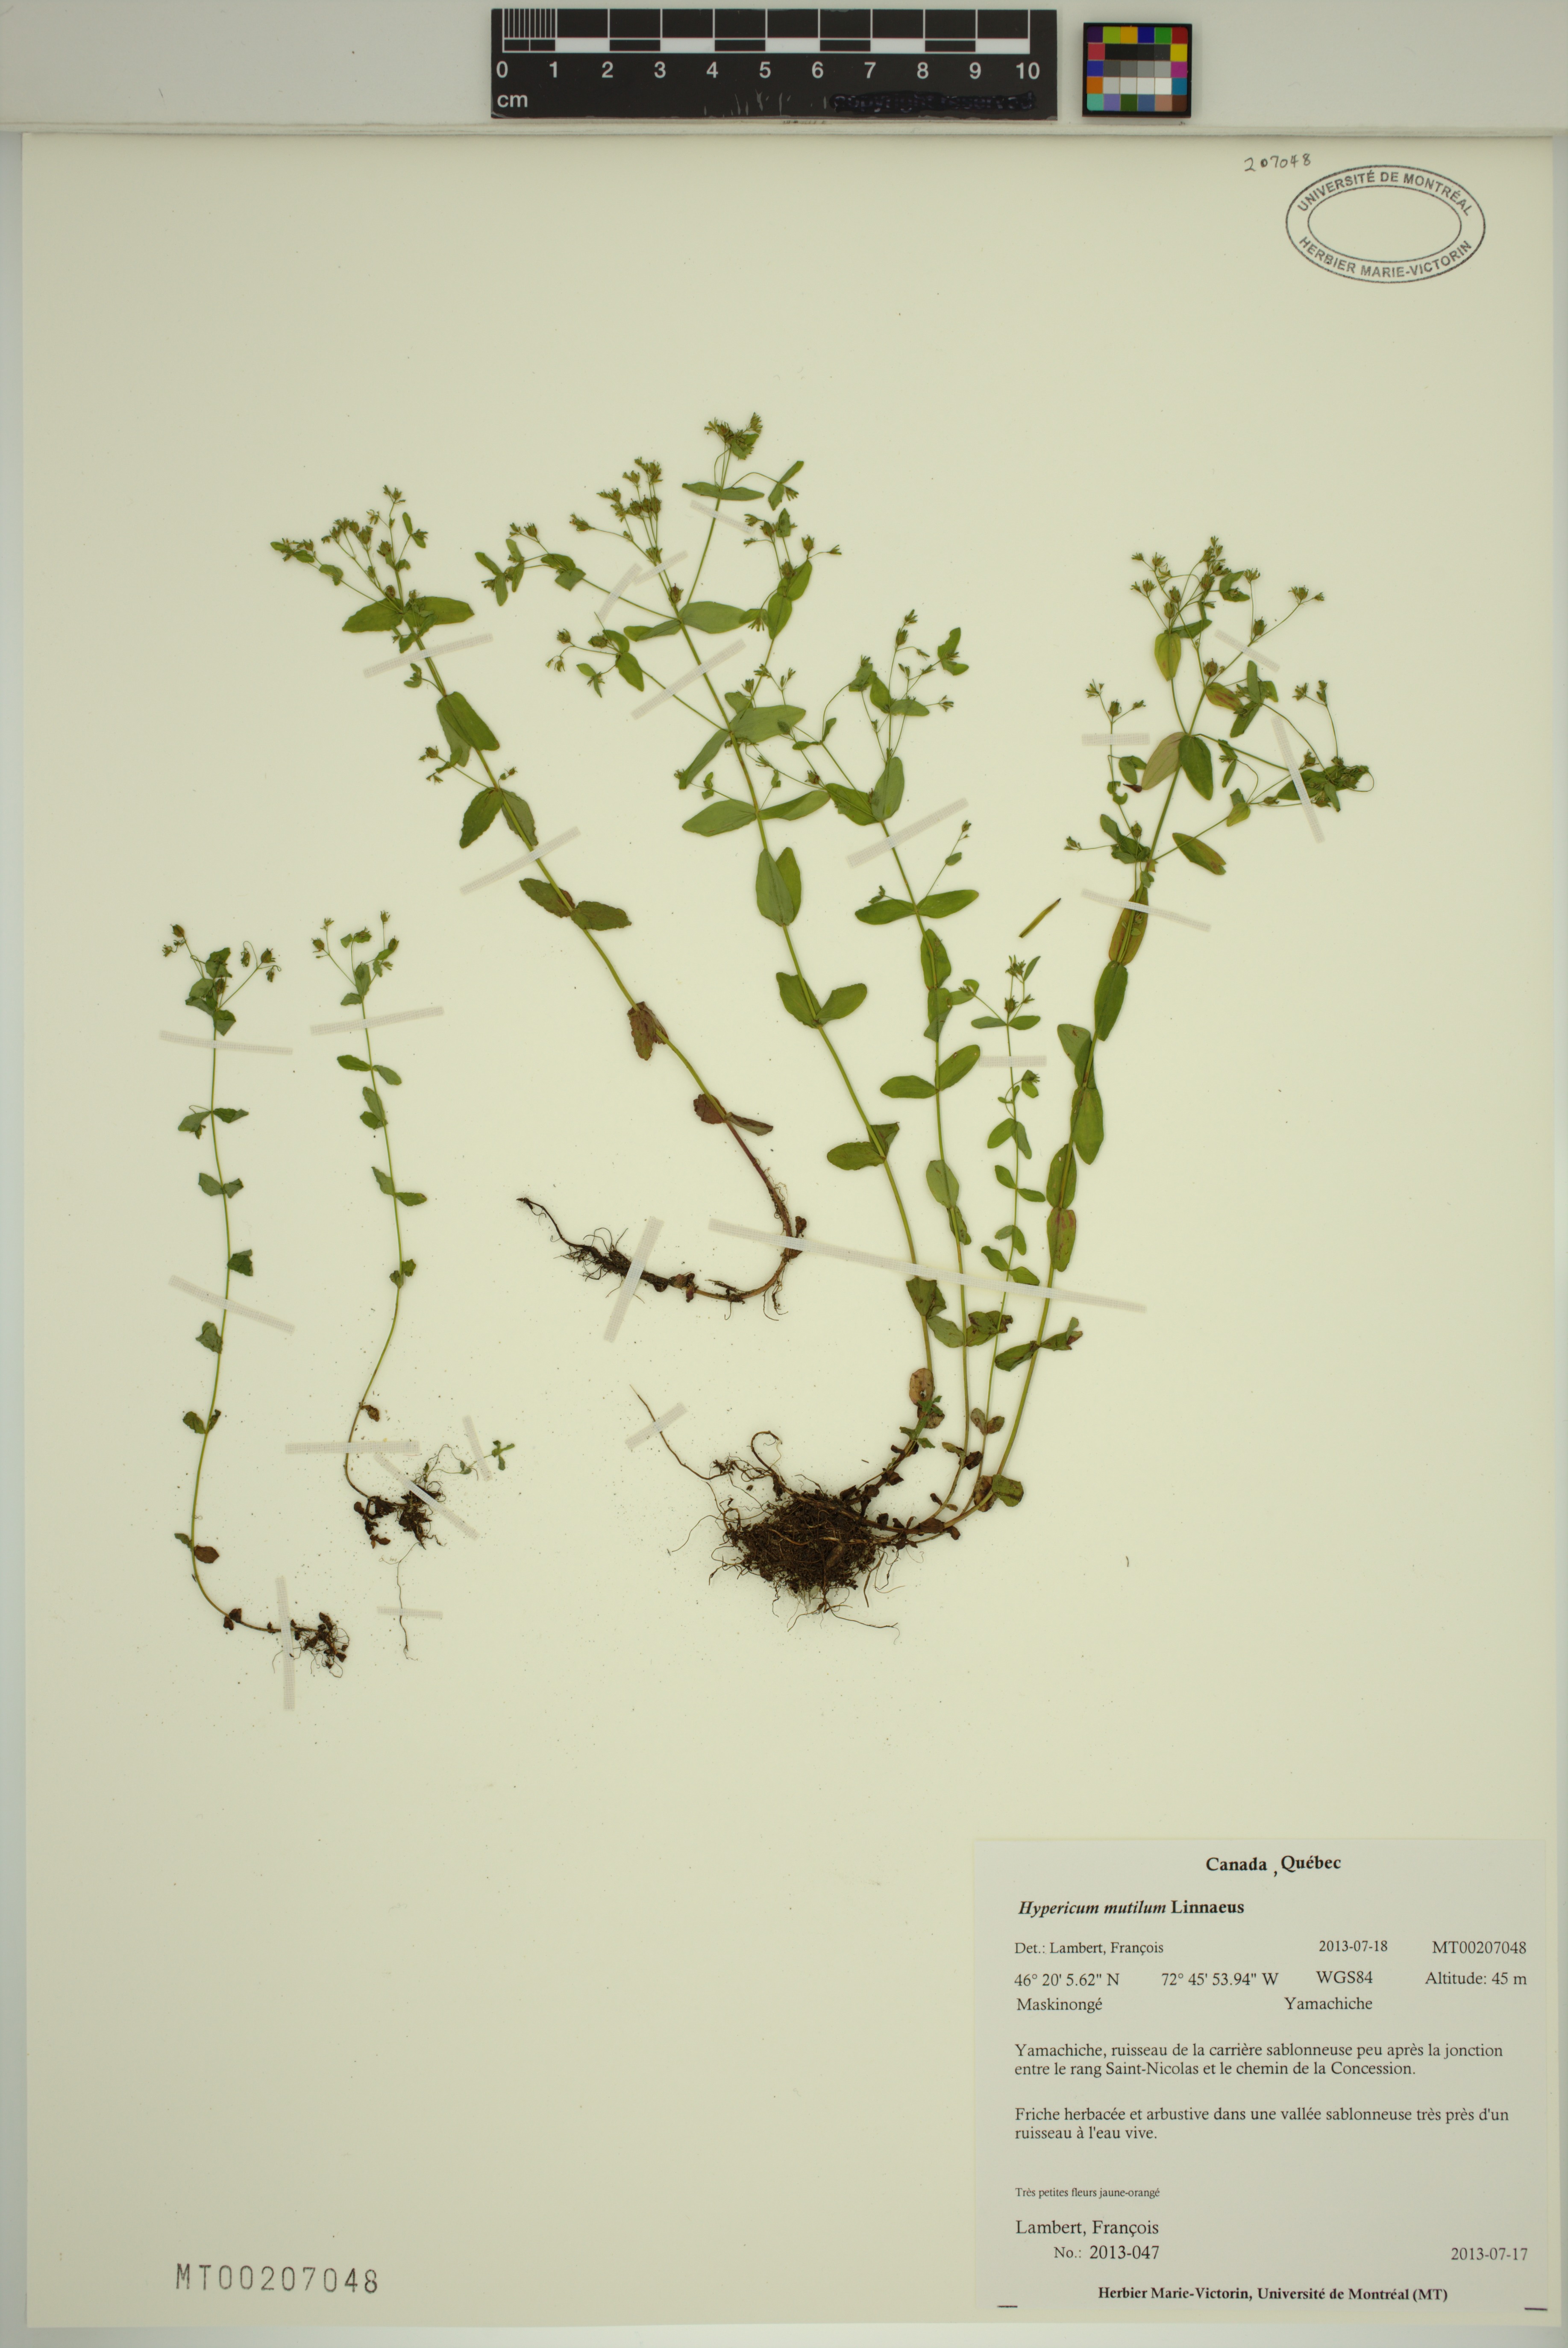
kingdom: Plantae
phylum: Tracheophyta
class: Magnoliopsida
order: Malpighiales
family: Hypericaceae
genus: Hypericum
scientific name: Hypericum mutilum
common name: Dwarf st. john's-wort
